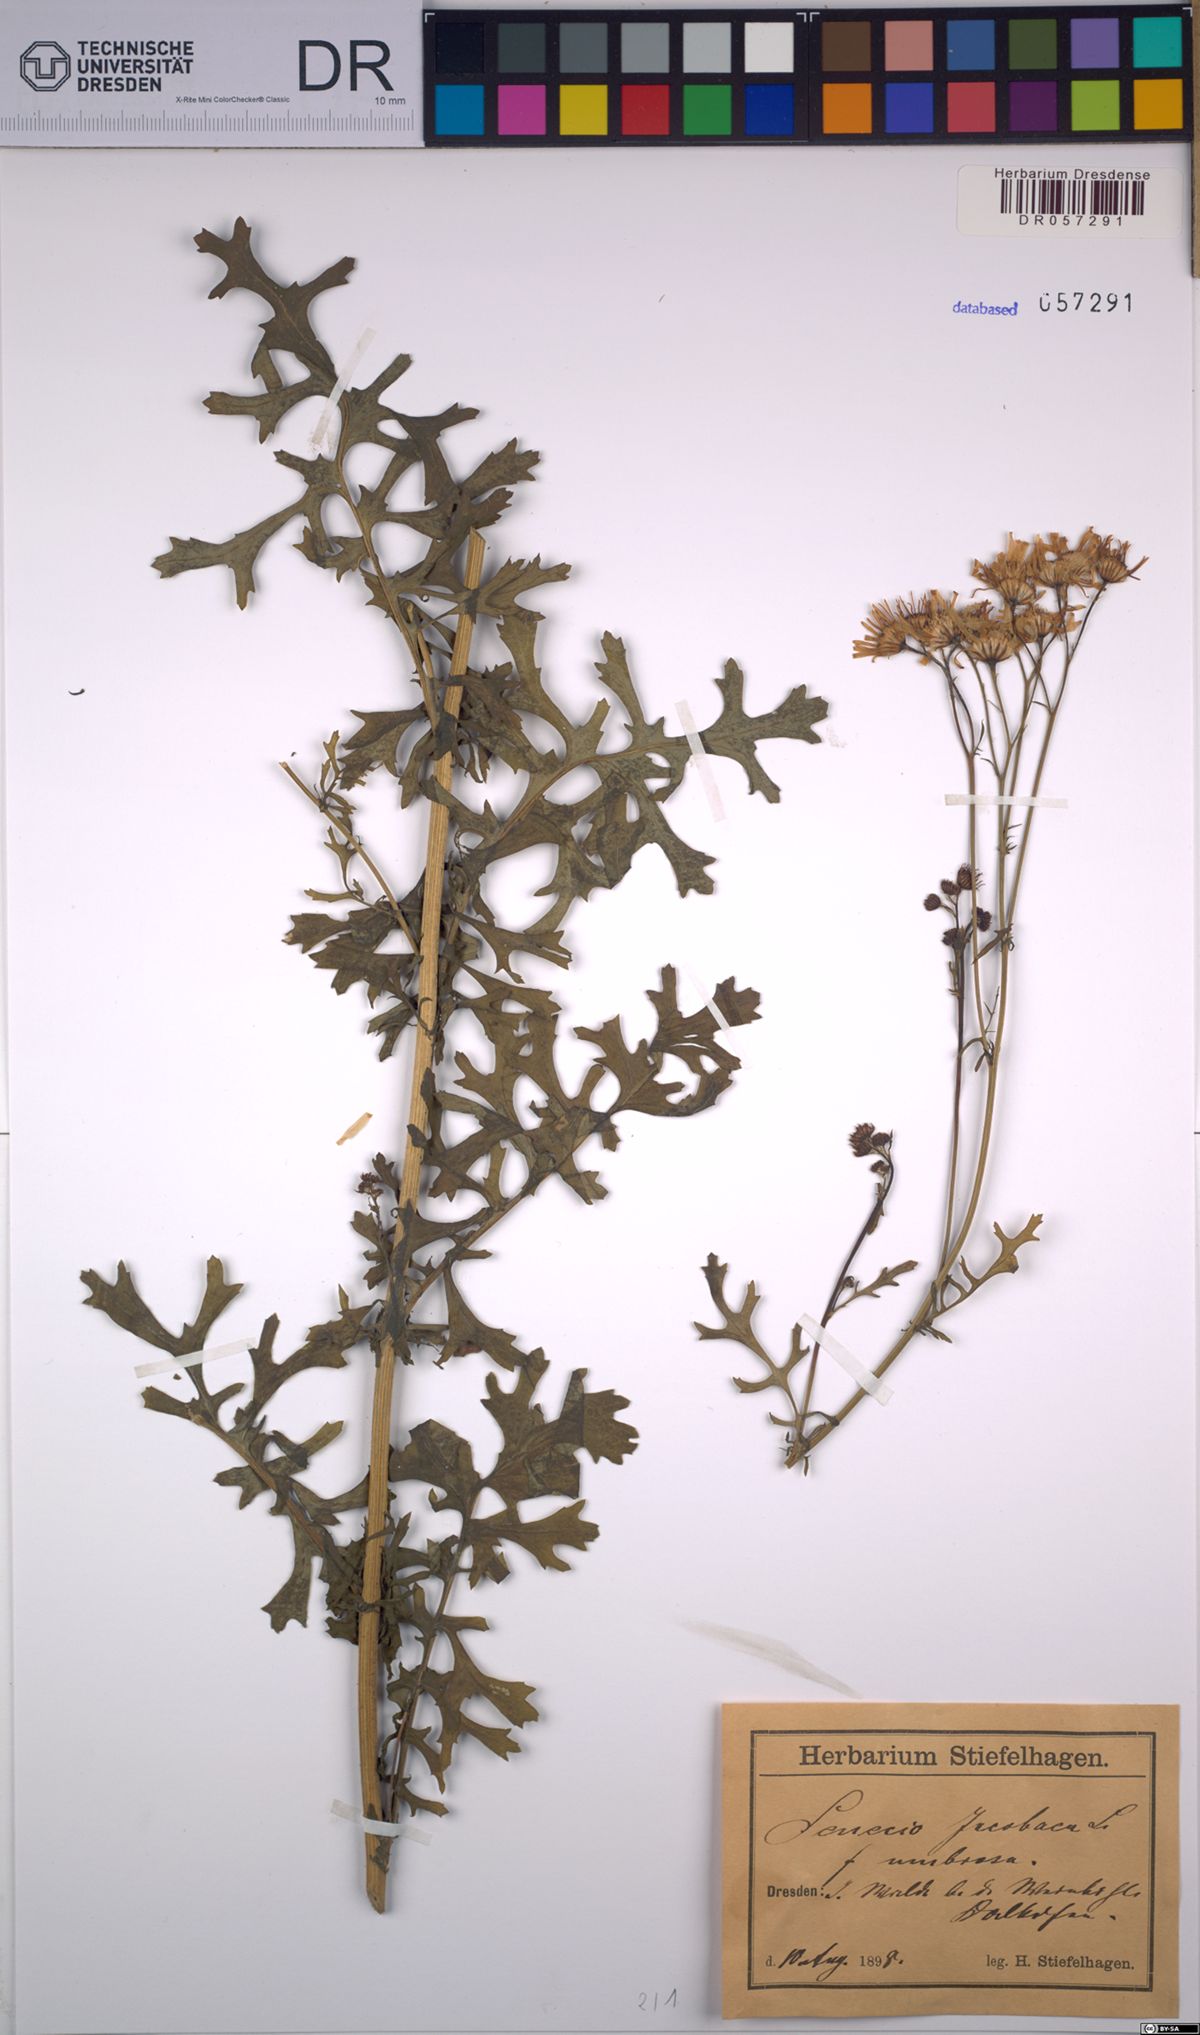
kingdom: Plantae
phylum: Tracheophyta
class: Magnoliopsida
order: Asterales
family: Asteraceae
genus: Jacobaea
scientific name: Jacobaea vulgaris
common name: Stinking willie
